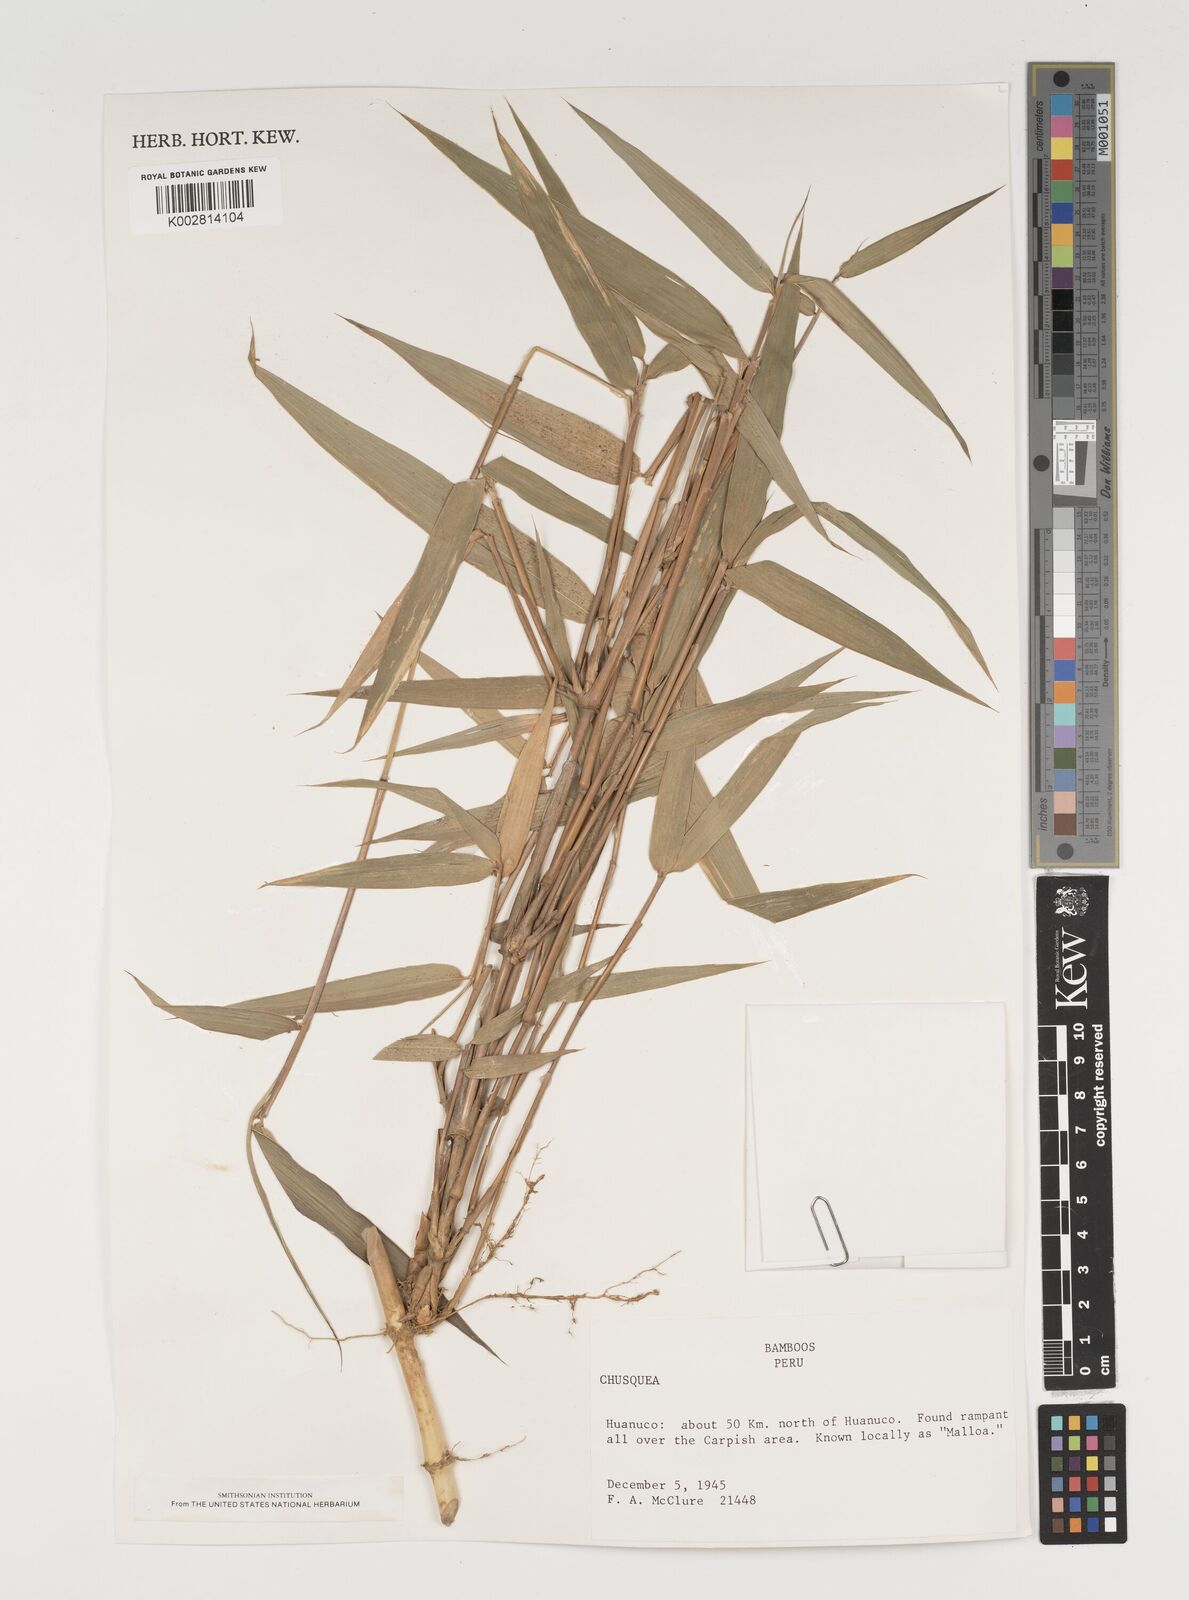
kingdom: Plantae
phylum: Tracheophyta
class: Liliopsida
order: Poales
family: Poaceae
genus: Chusquea
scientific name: Chusquea
